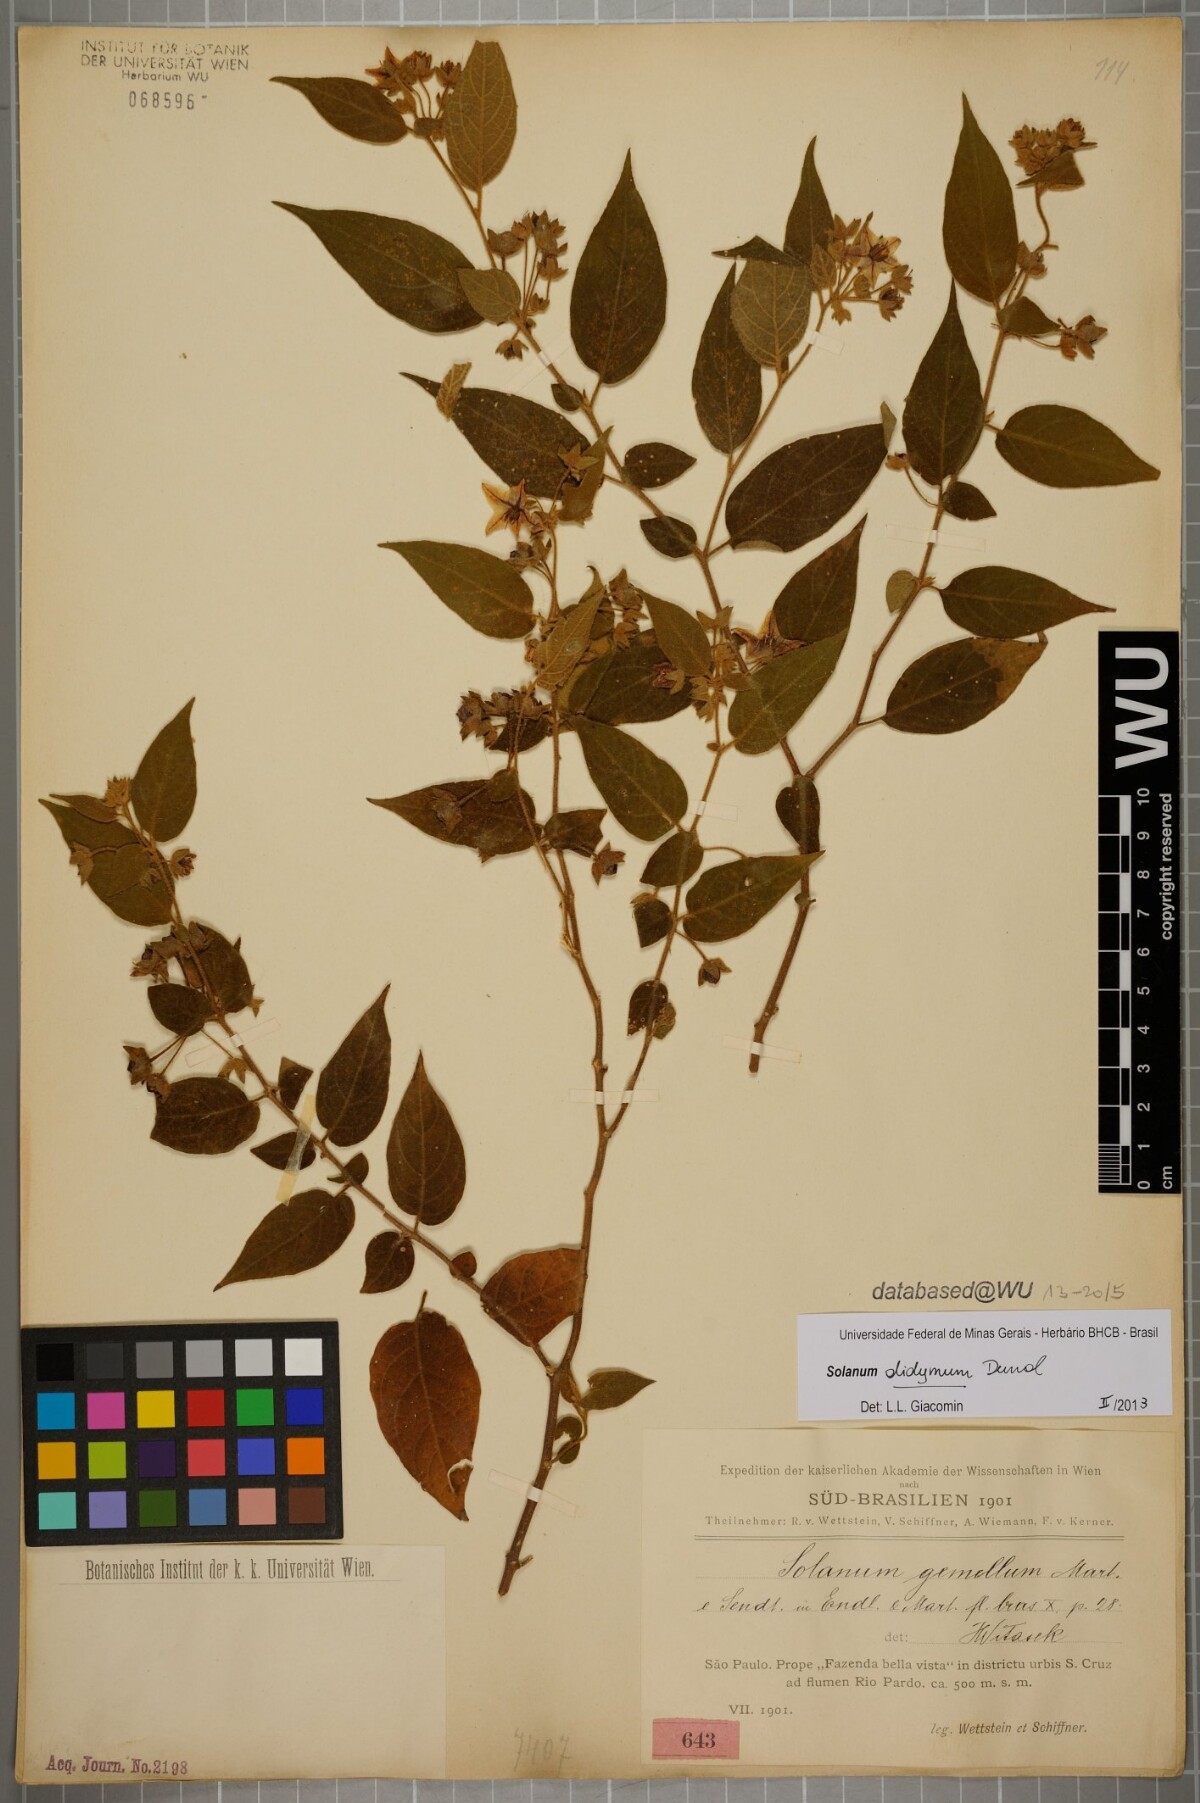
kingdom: Plantae
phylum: Tracheophyta
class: Magnoliopsida
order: Solanales
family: Solanaceae
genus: Solanum
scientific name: Solanum didymum
